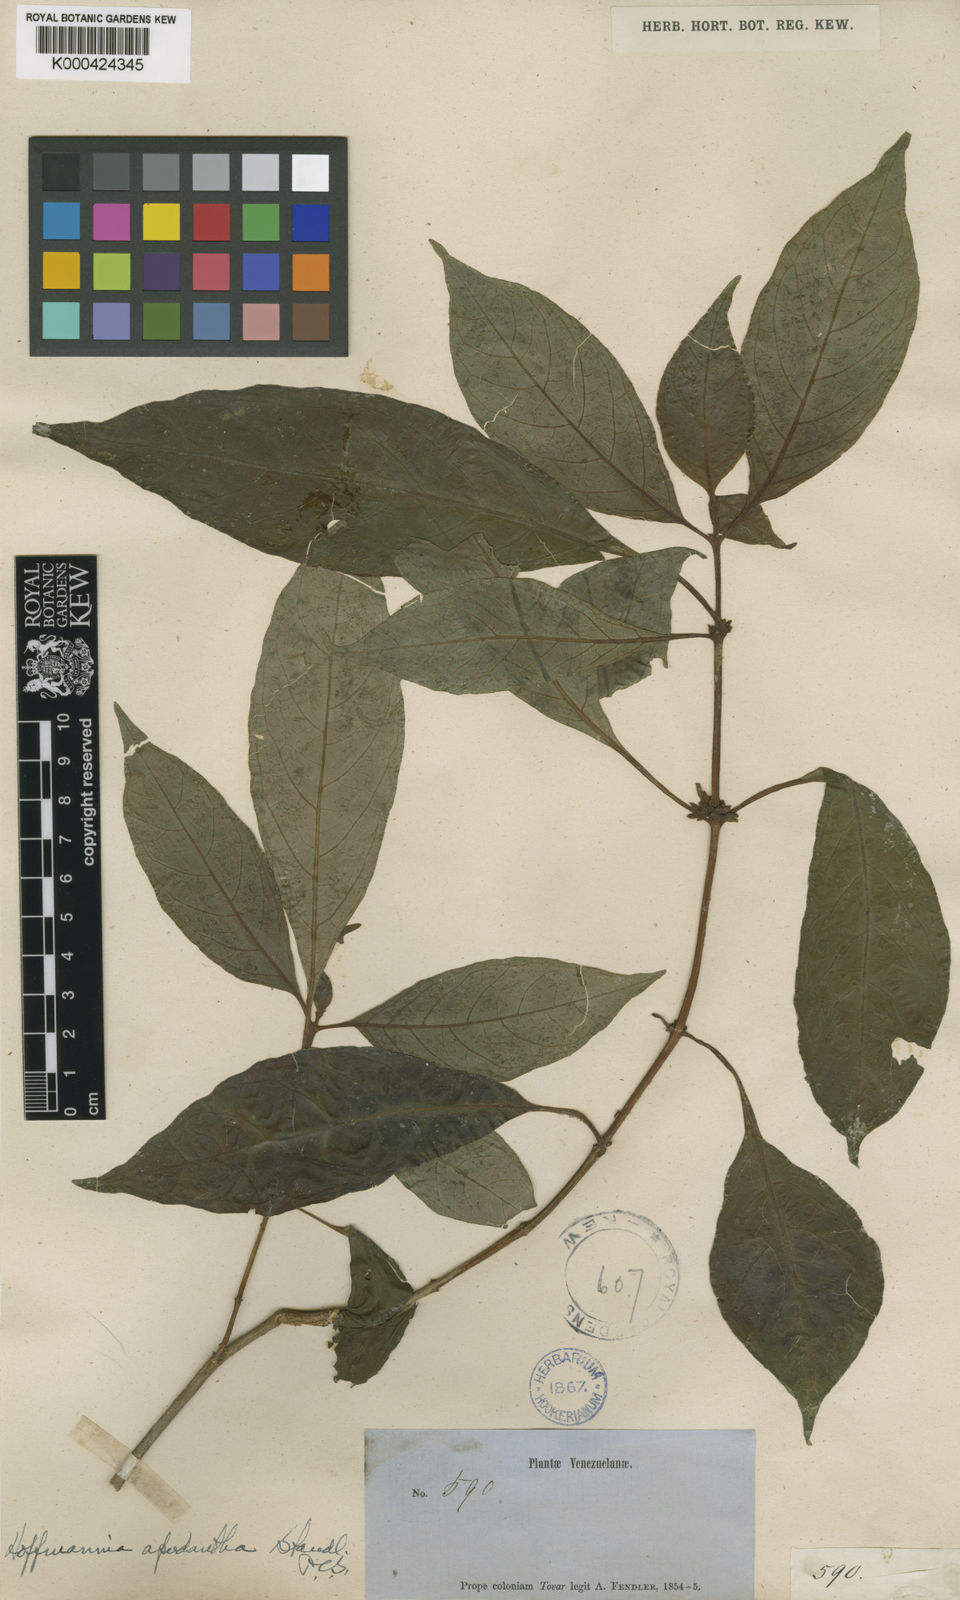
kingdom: Plantae
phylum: Tracheophyta
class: Magnoliopsida
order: Gentianales
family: Rubiaceae
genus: Hoffmannia
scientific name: Hoffmannia apodantha
